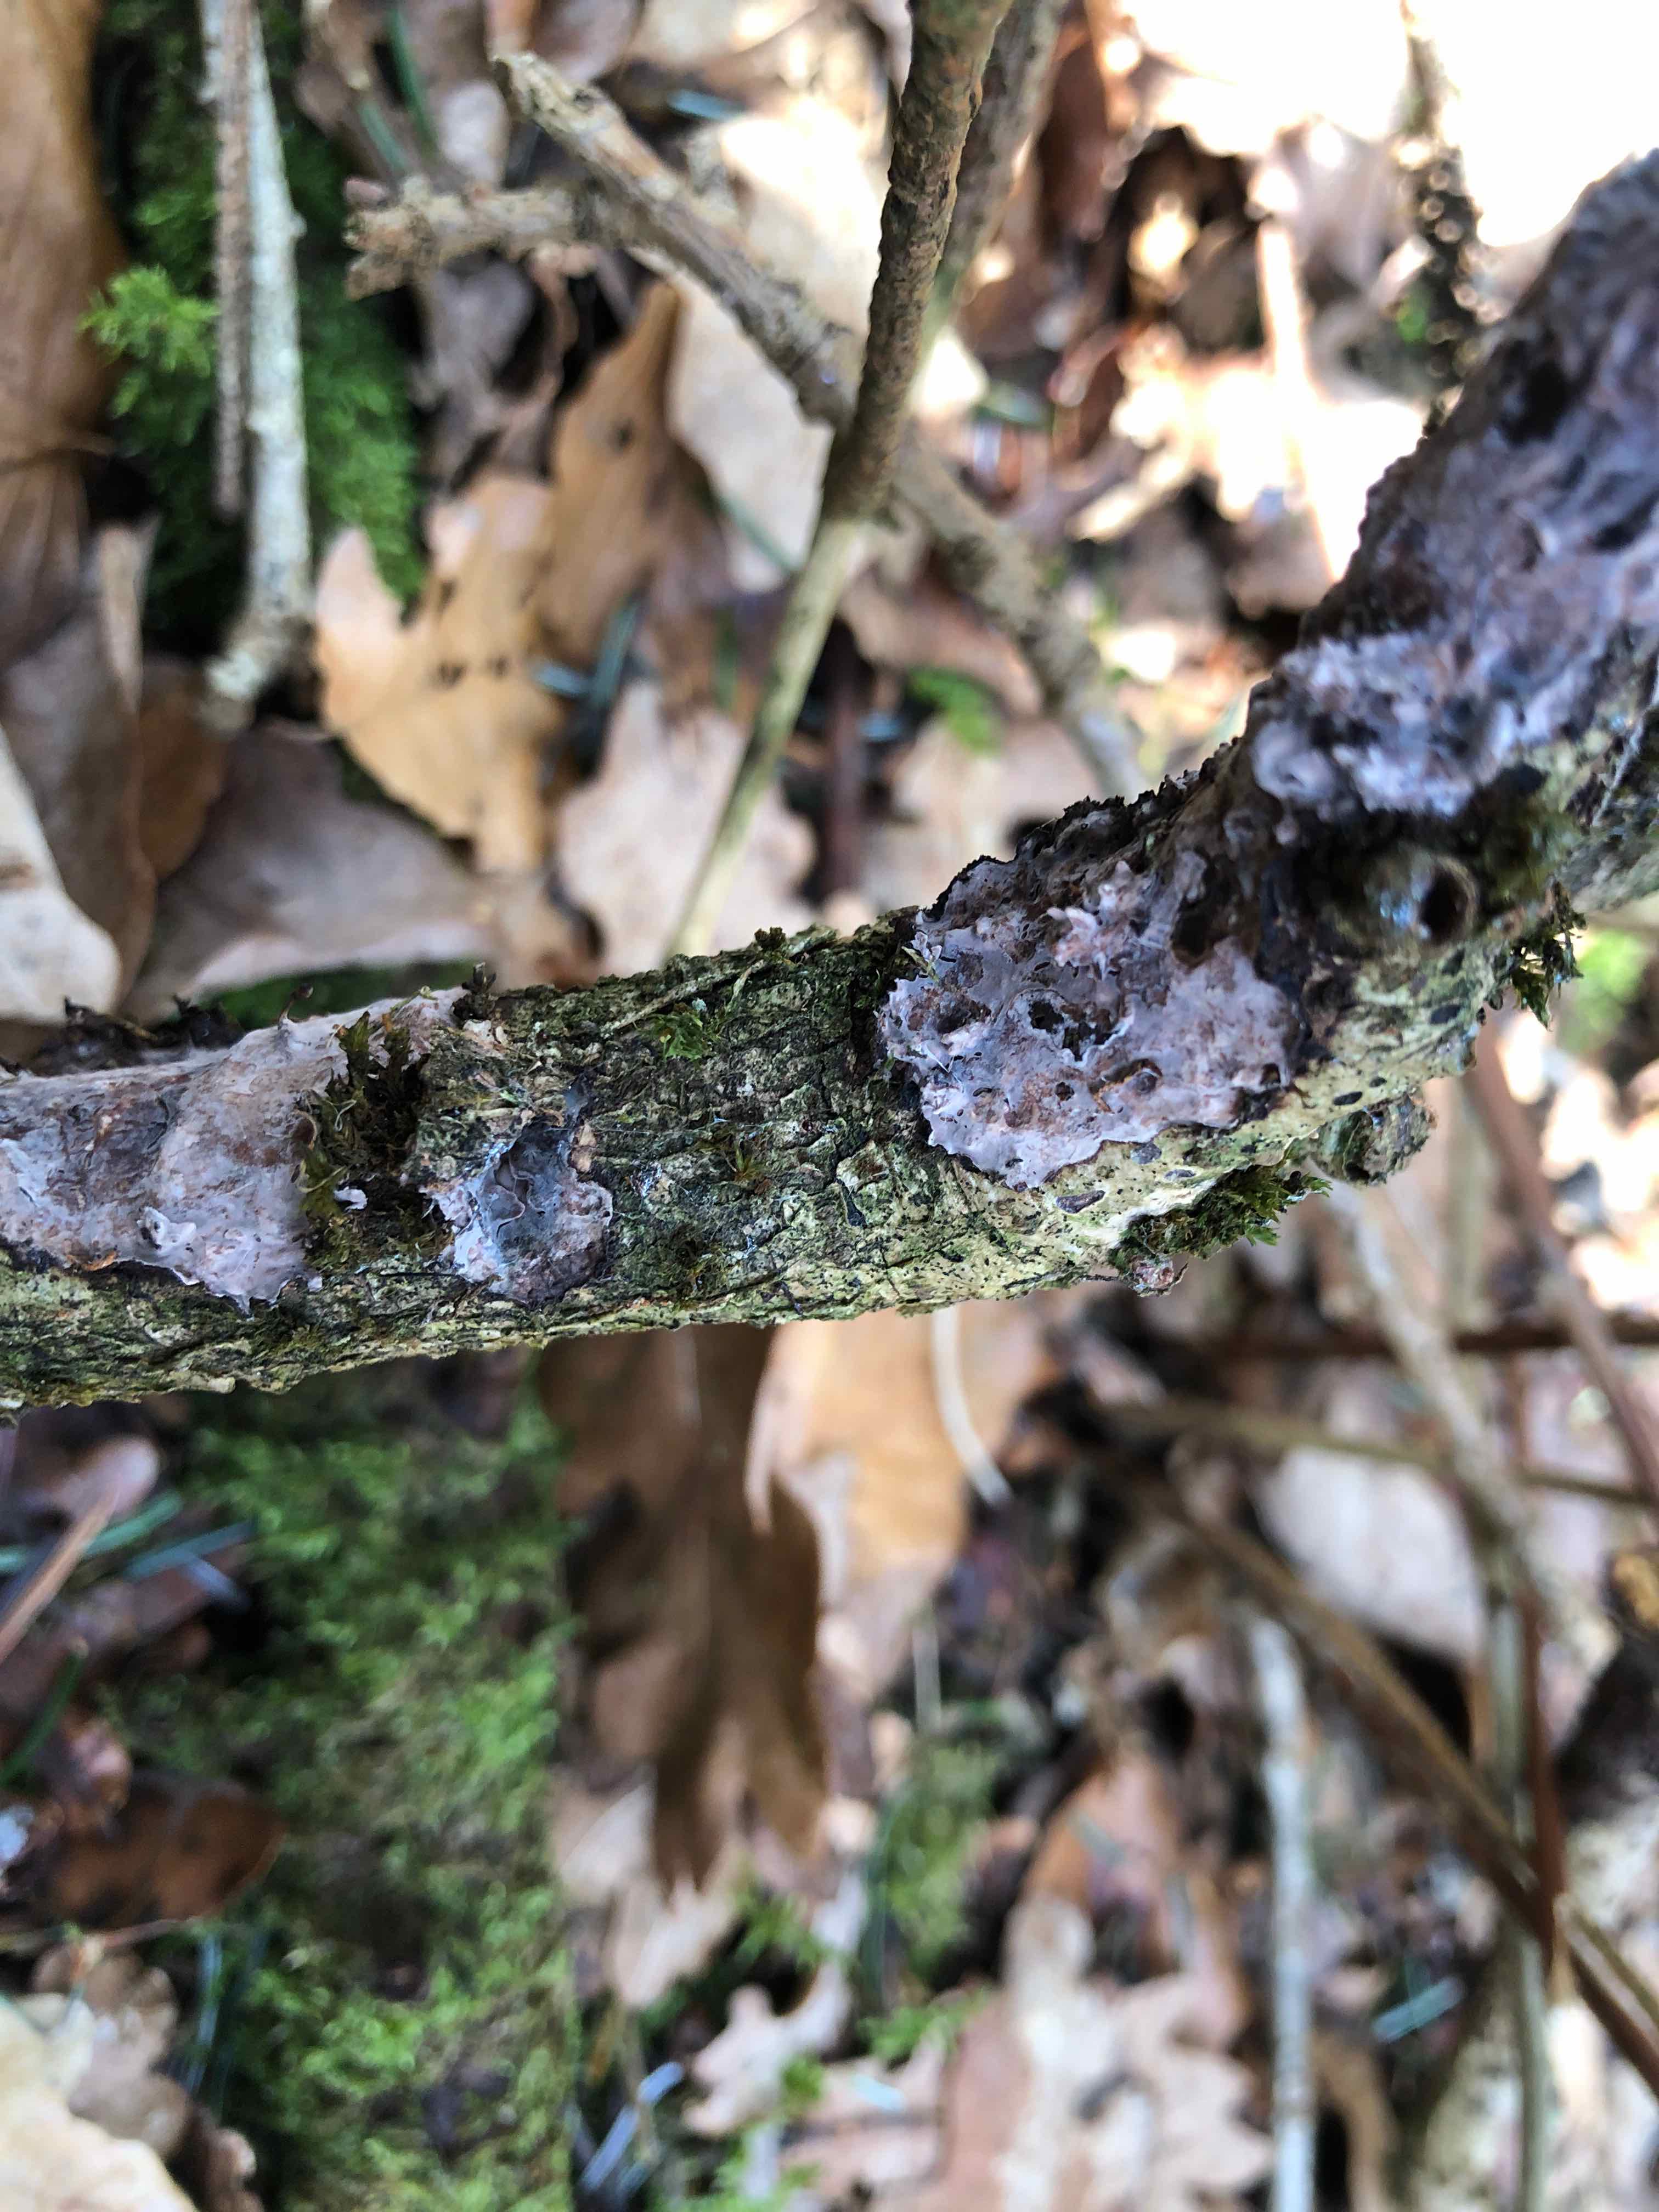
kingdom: Fungi
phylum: Basidiomycota
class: Agaricomycetes
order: Russulales
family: Peniophoraceae
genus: Peniophora
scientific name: Peniophora quercina
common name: ege-voksskind
